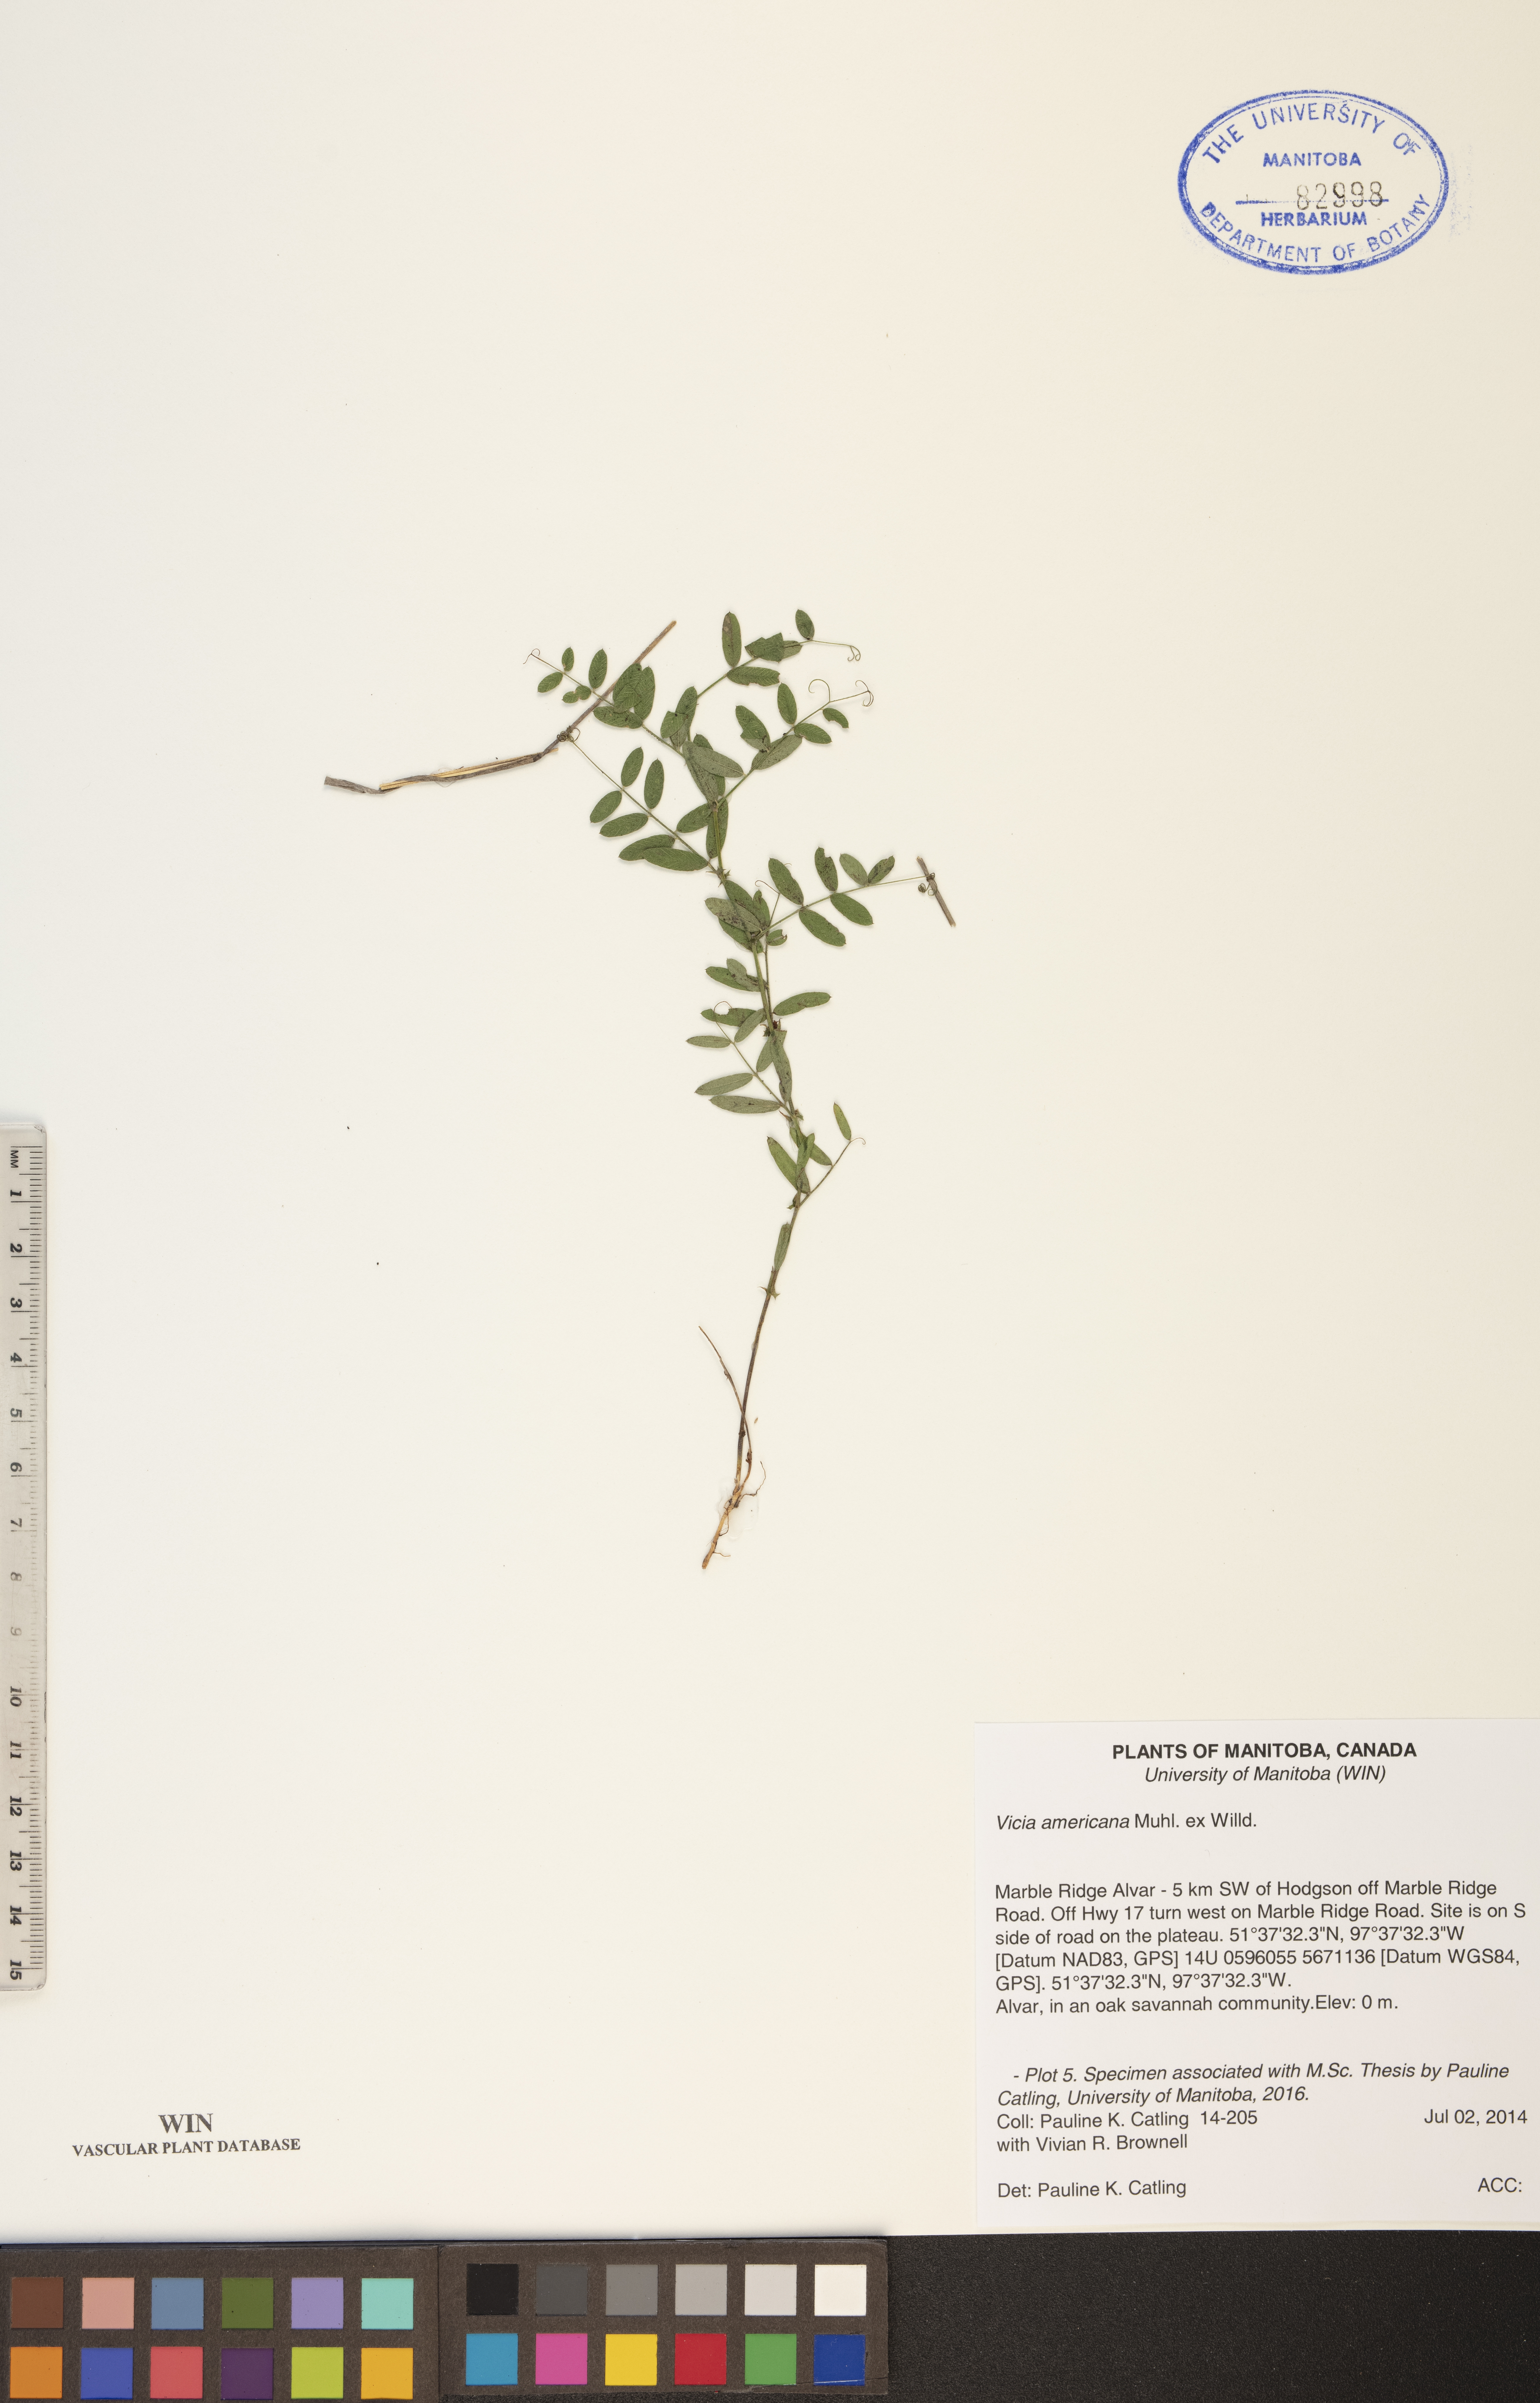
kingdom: Plantae
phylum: Tracheophyta
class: Magnoliopsida
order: Fabales
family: Fabaceae
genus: Vicia
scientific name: Vicia americana
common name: American vetch
